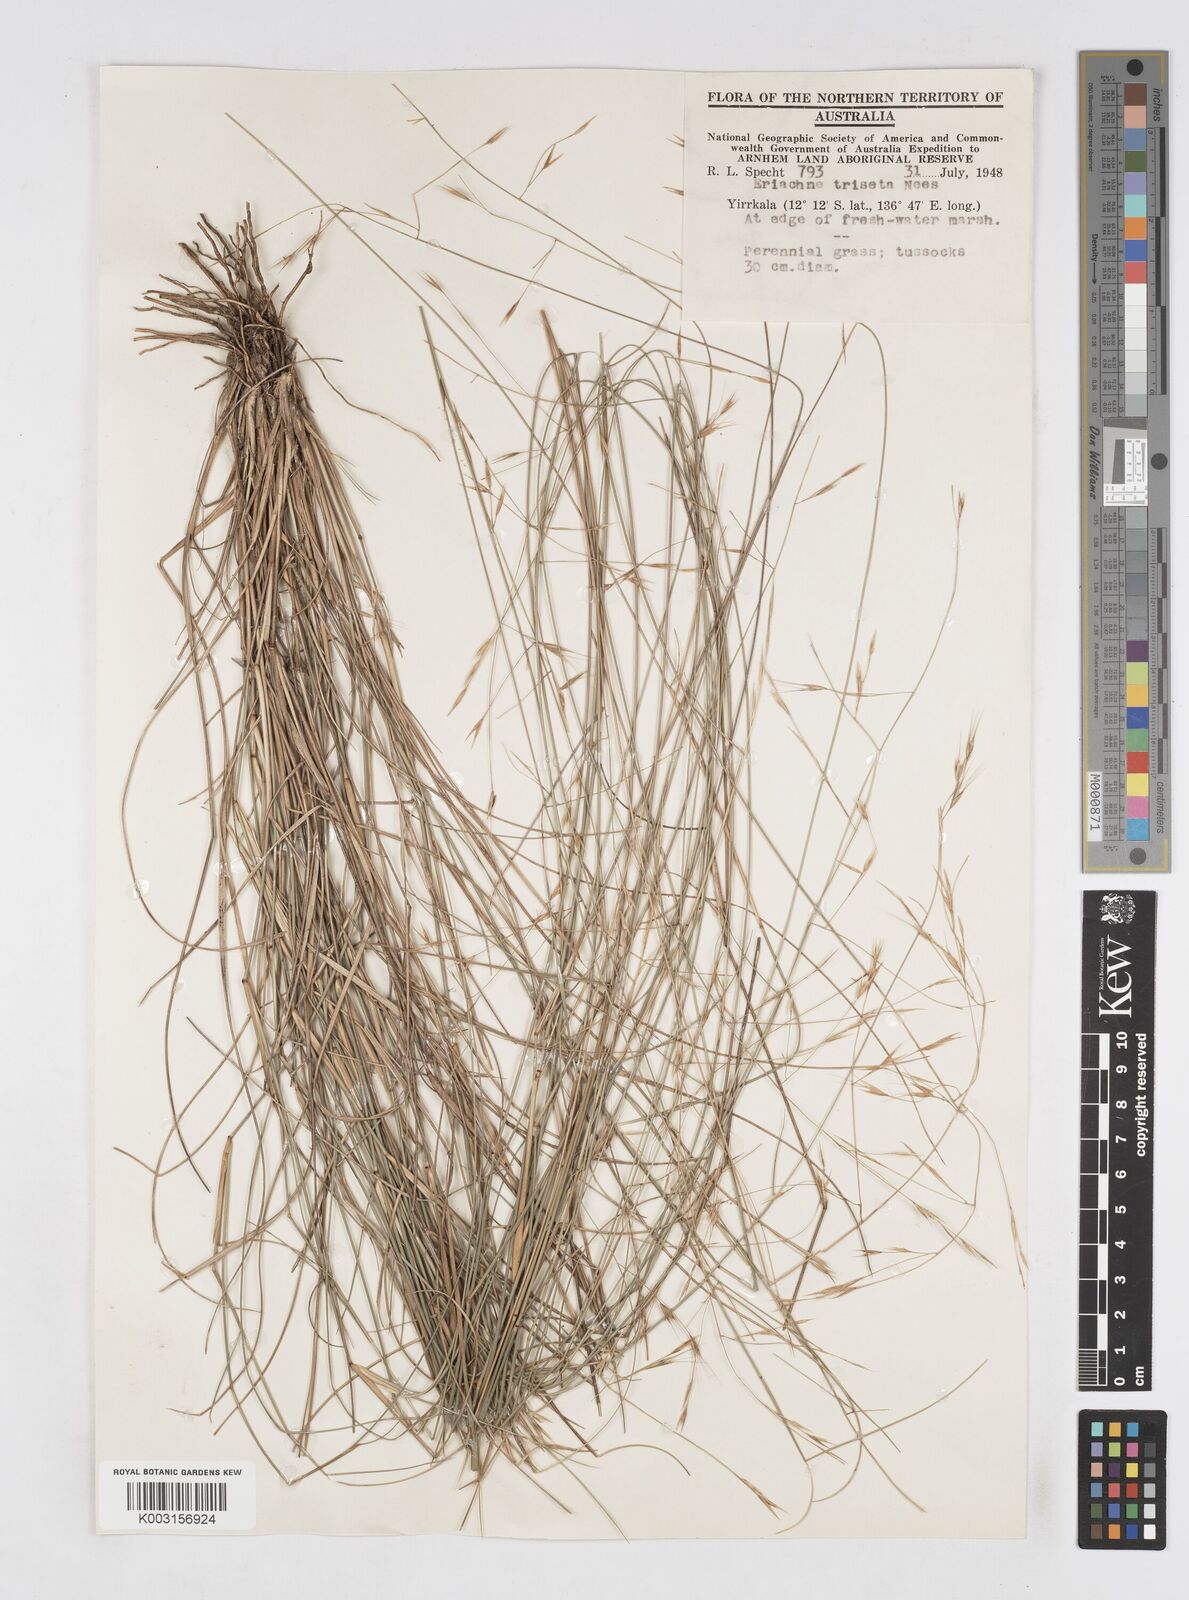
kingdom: Plantae
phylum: Tracheophyta
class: Liliopsida
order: Poales
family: Poaceae
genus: Eriachne
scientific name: Eriachne triseta
